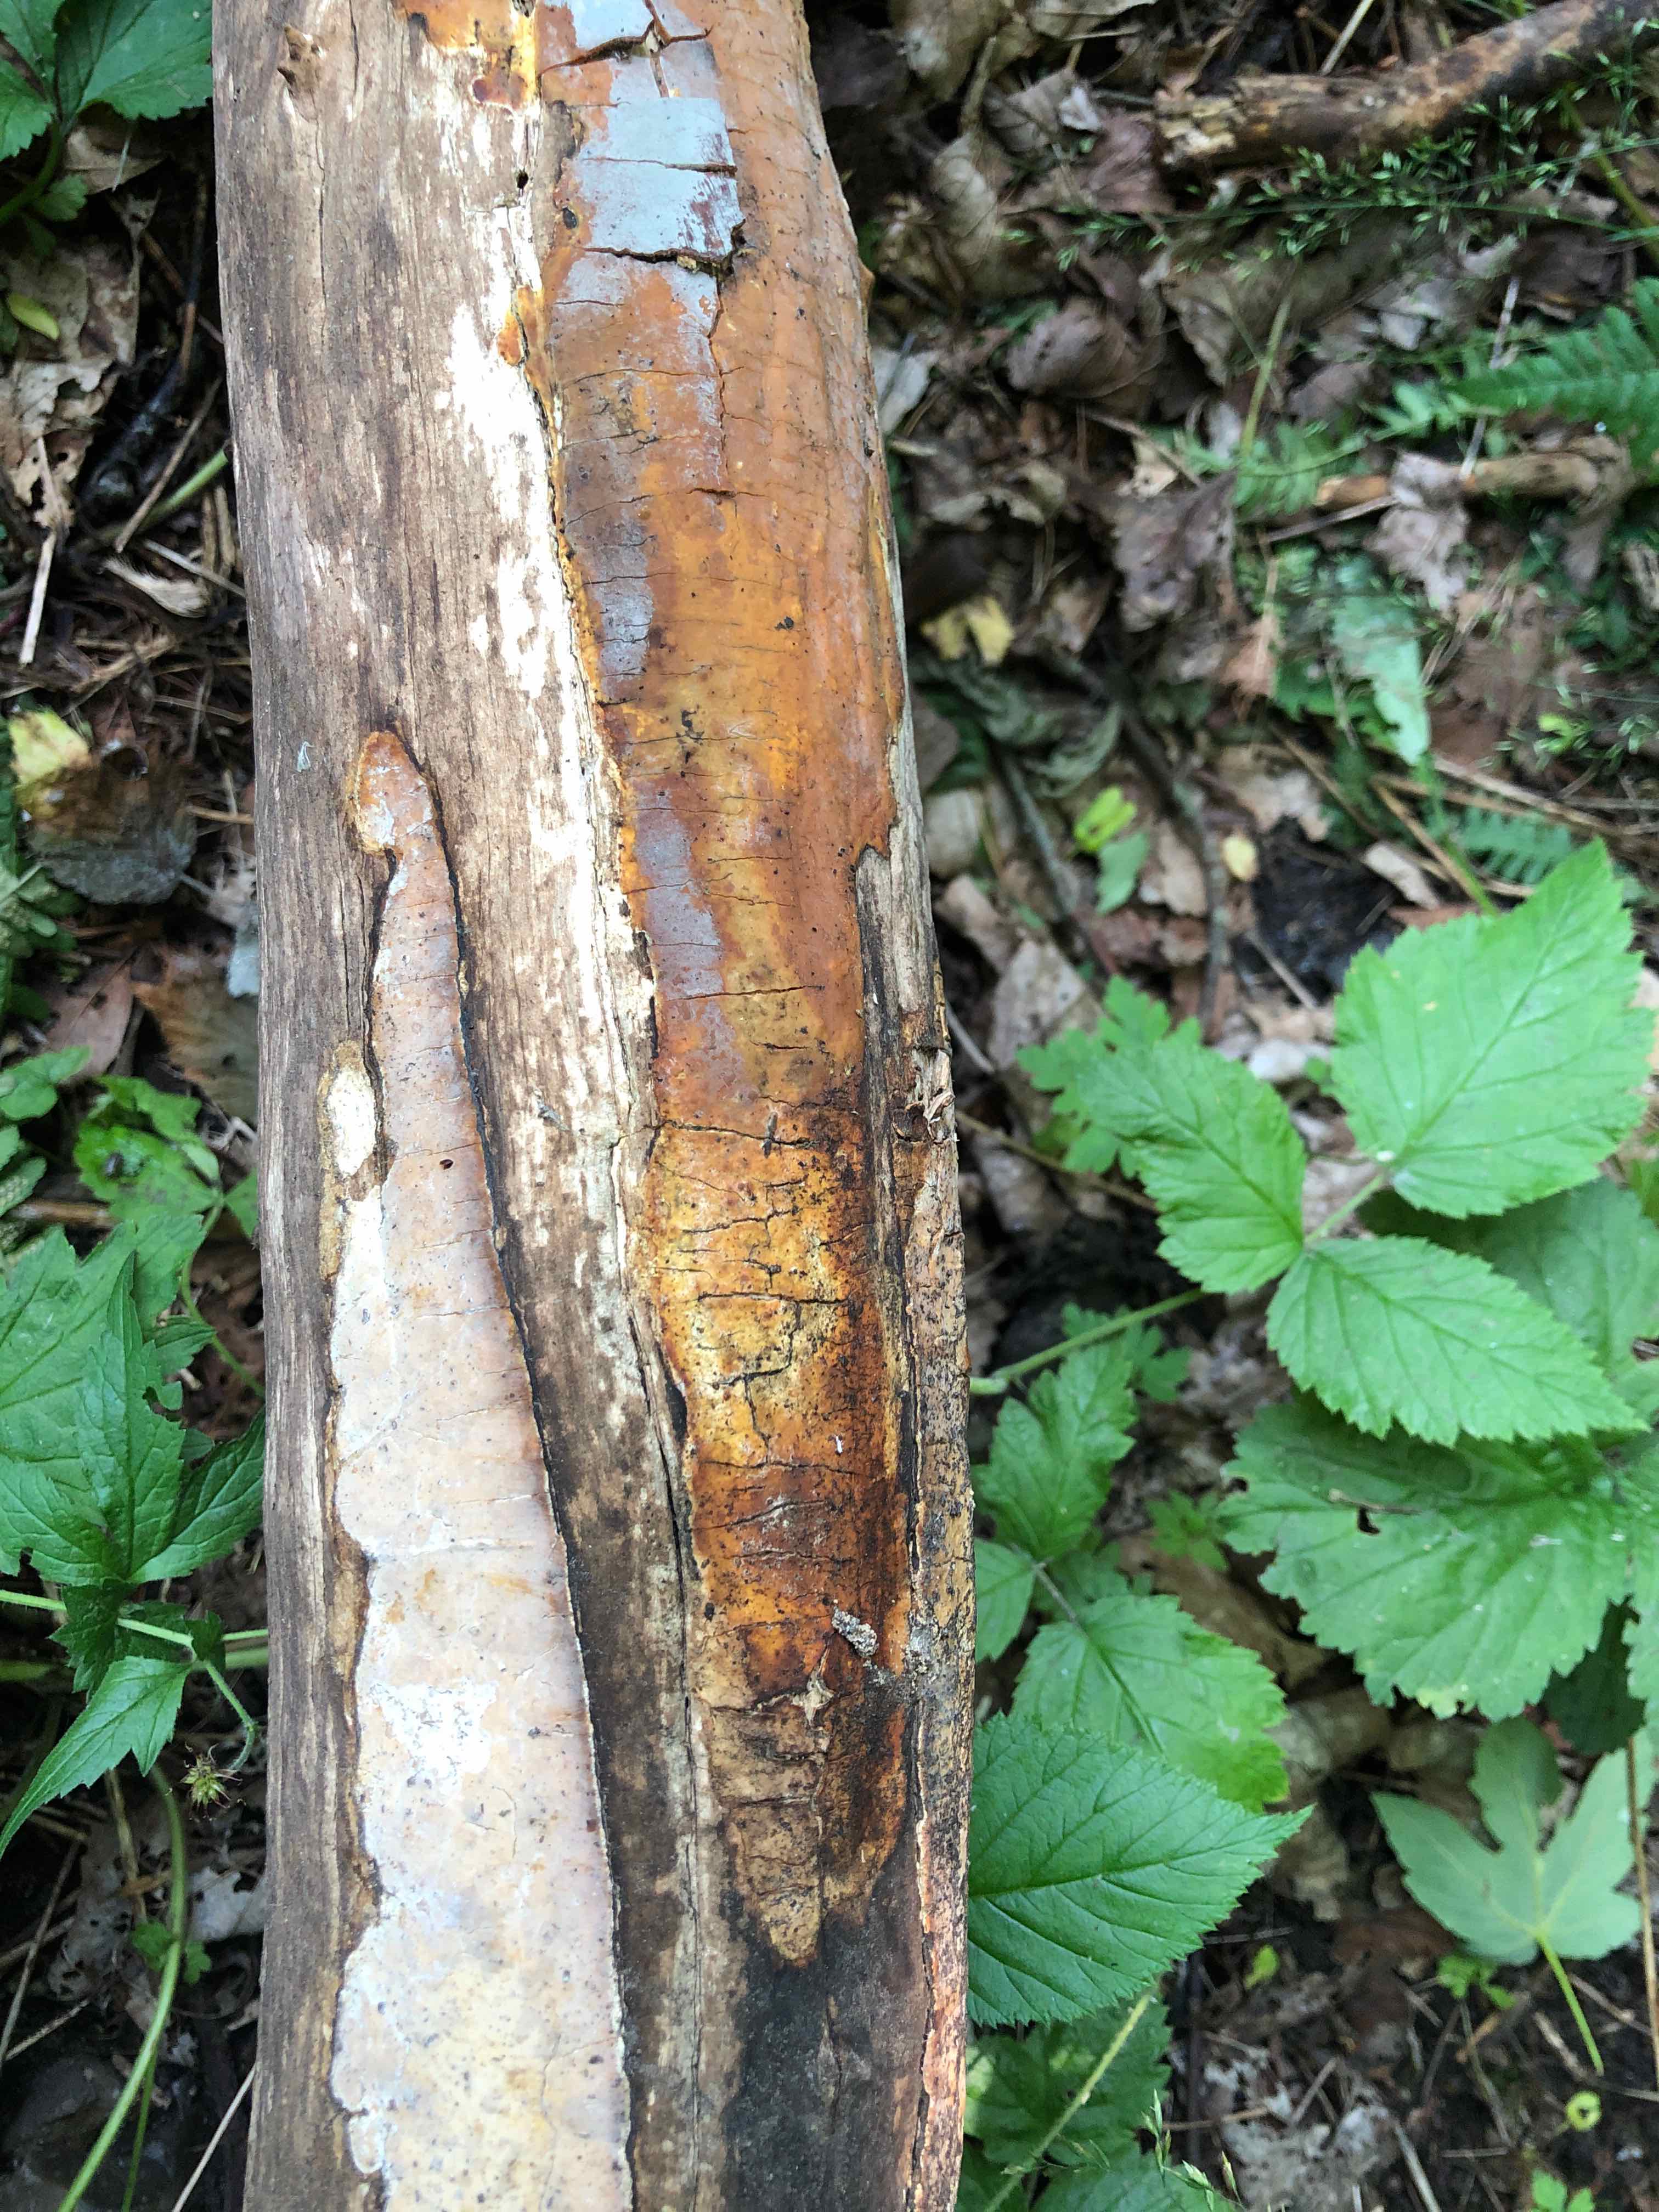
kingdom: Fungi
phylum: Basidiomycota
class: Agaricomycetes
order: Russulales
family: Peniophoraceae
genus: Scytinostroma
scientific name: Scytinostroma hemidichophyticum
